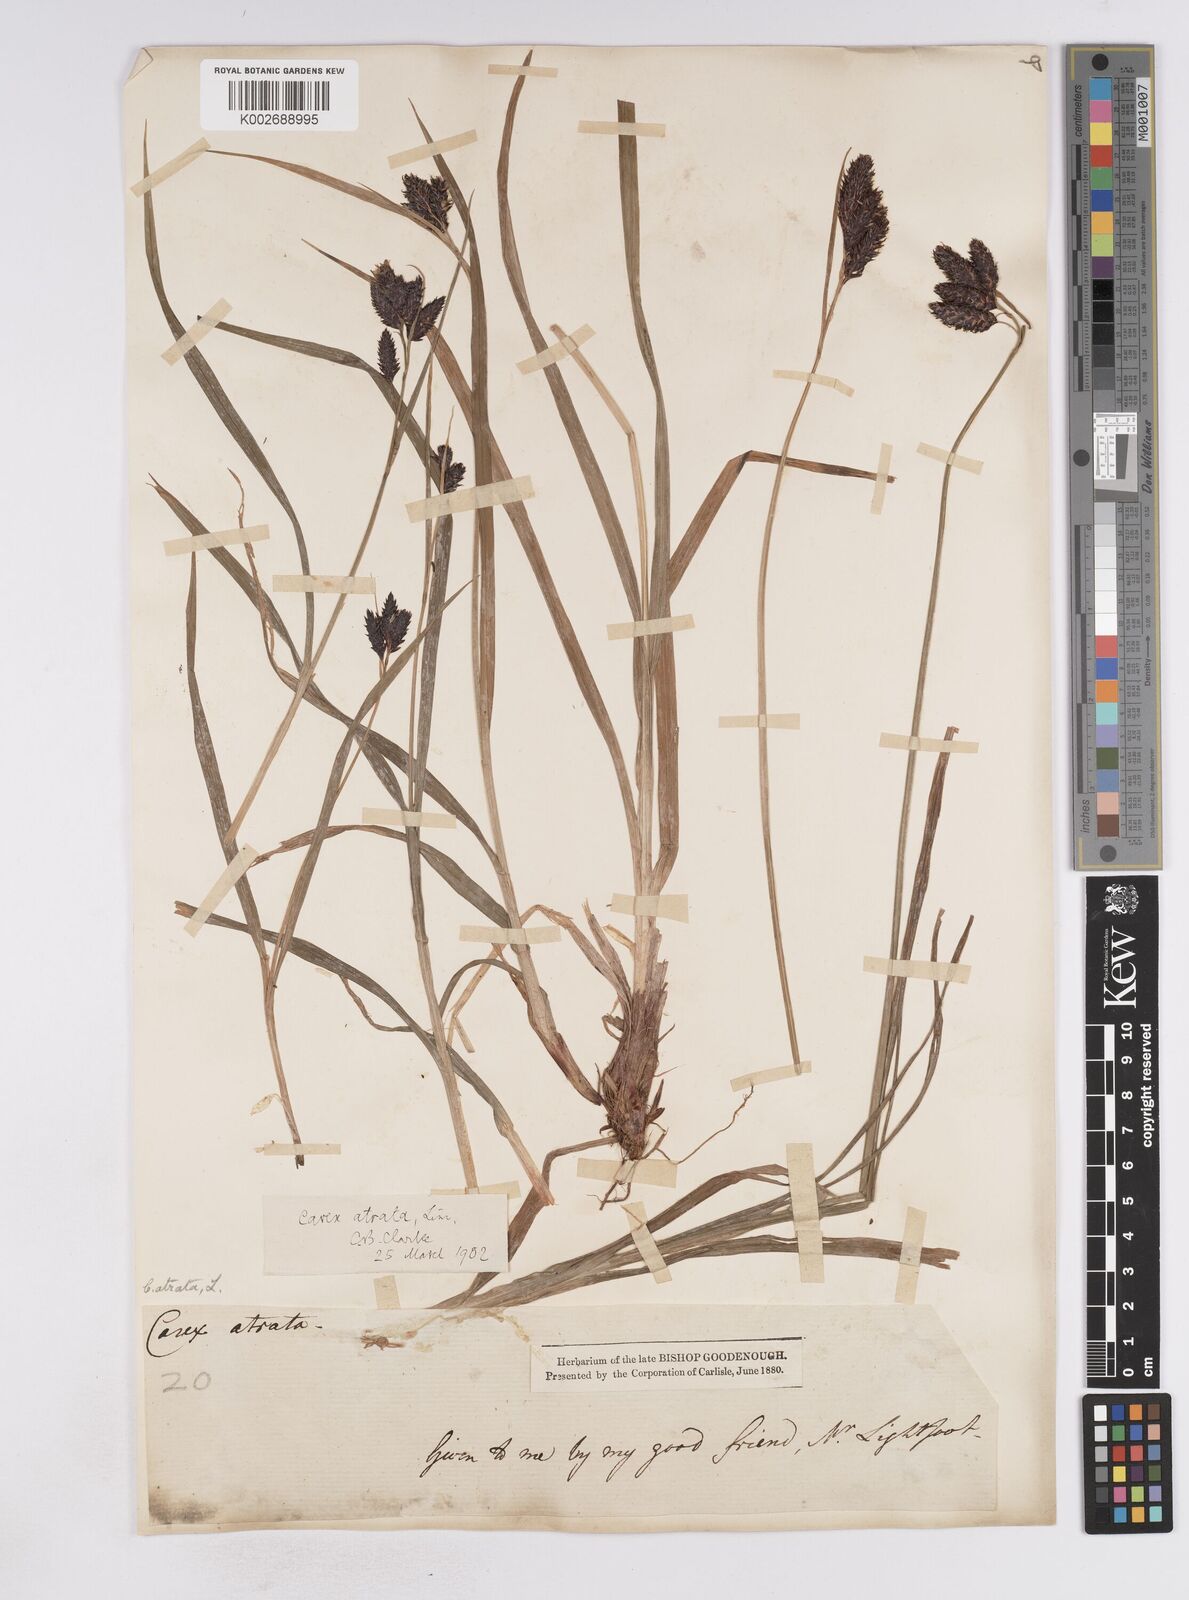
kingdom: Plantae
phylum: Tracheophyta
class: Liliopsida
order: Poales
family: Cyperaceae
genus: Carex
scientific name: Carex atrata
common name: Black alpine sedge
